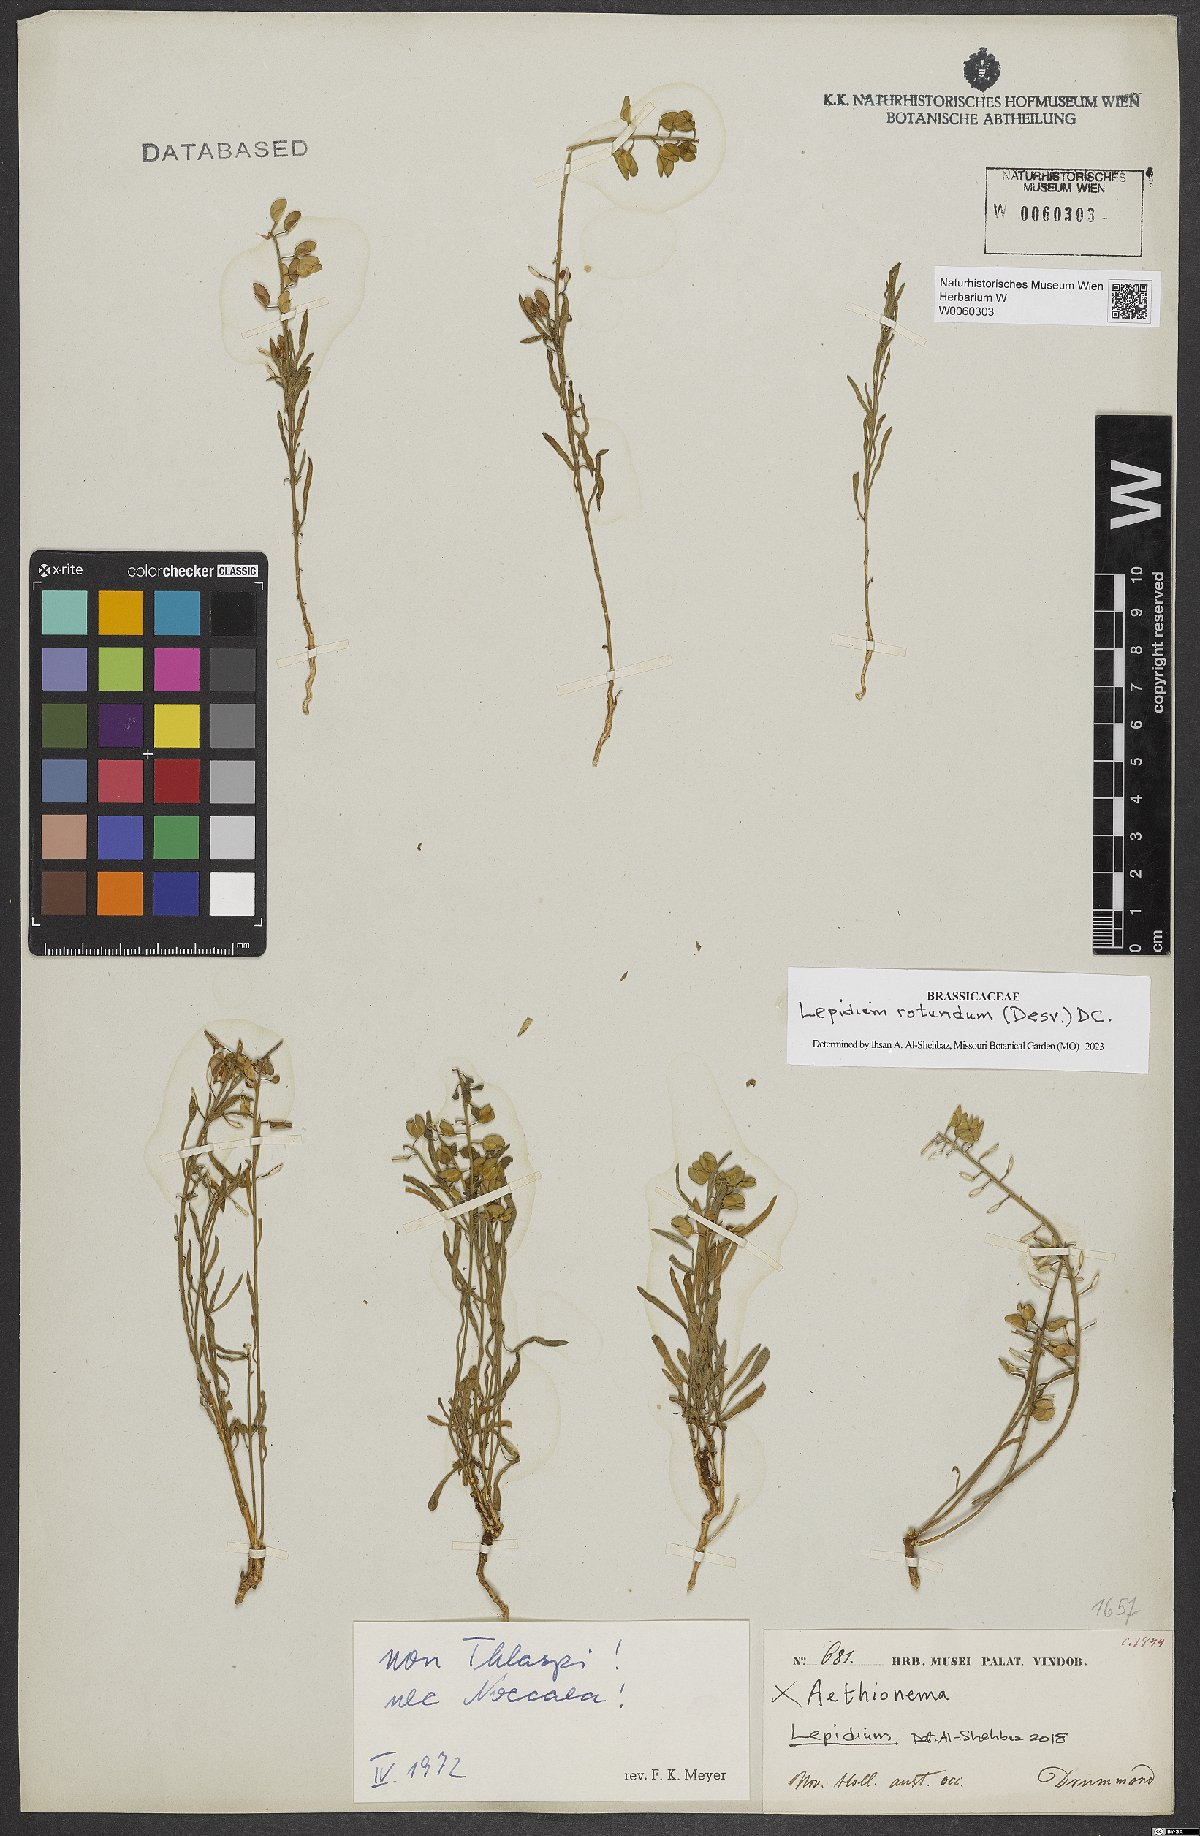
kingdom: Plantae
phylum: Tracheophyta
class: Magnoliopsida
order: Brassicales
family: Brassicaceae
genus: Lepidium
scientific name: Lepidium rotundum
